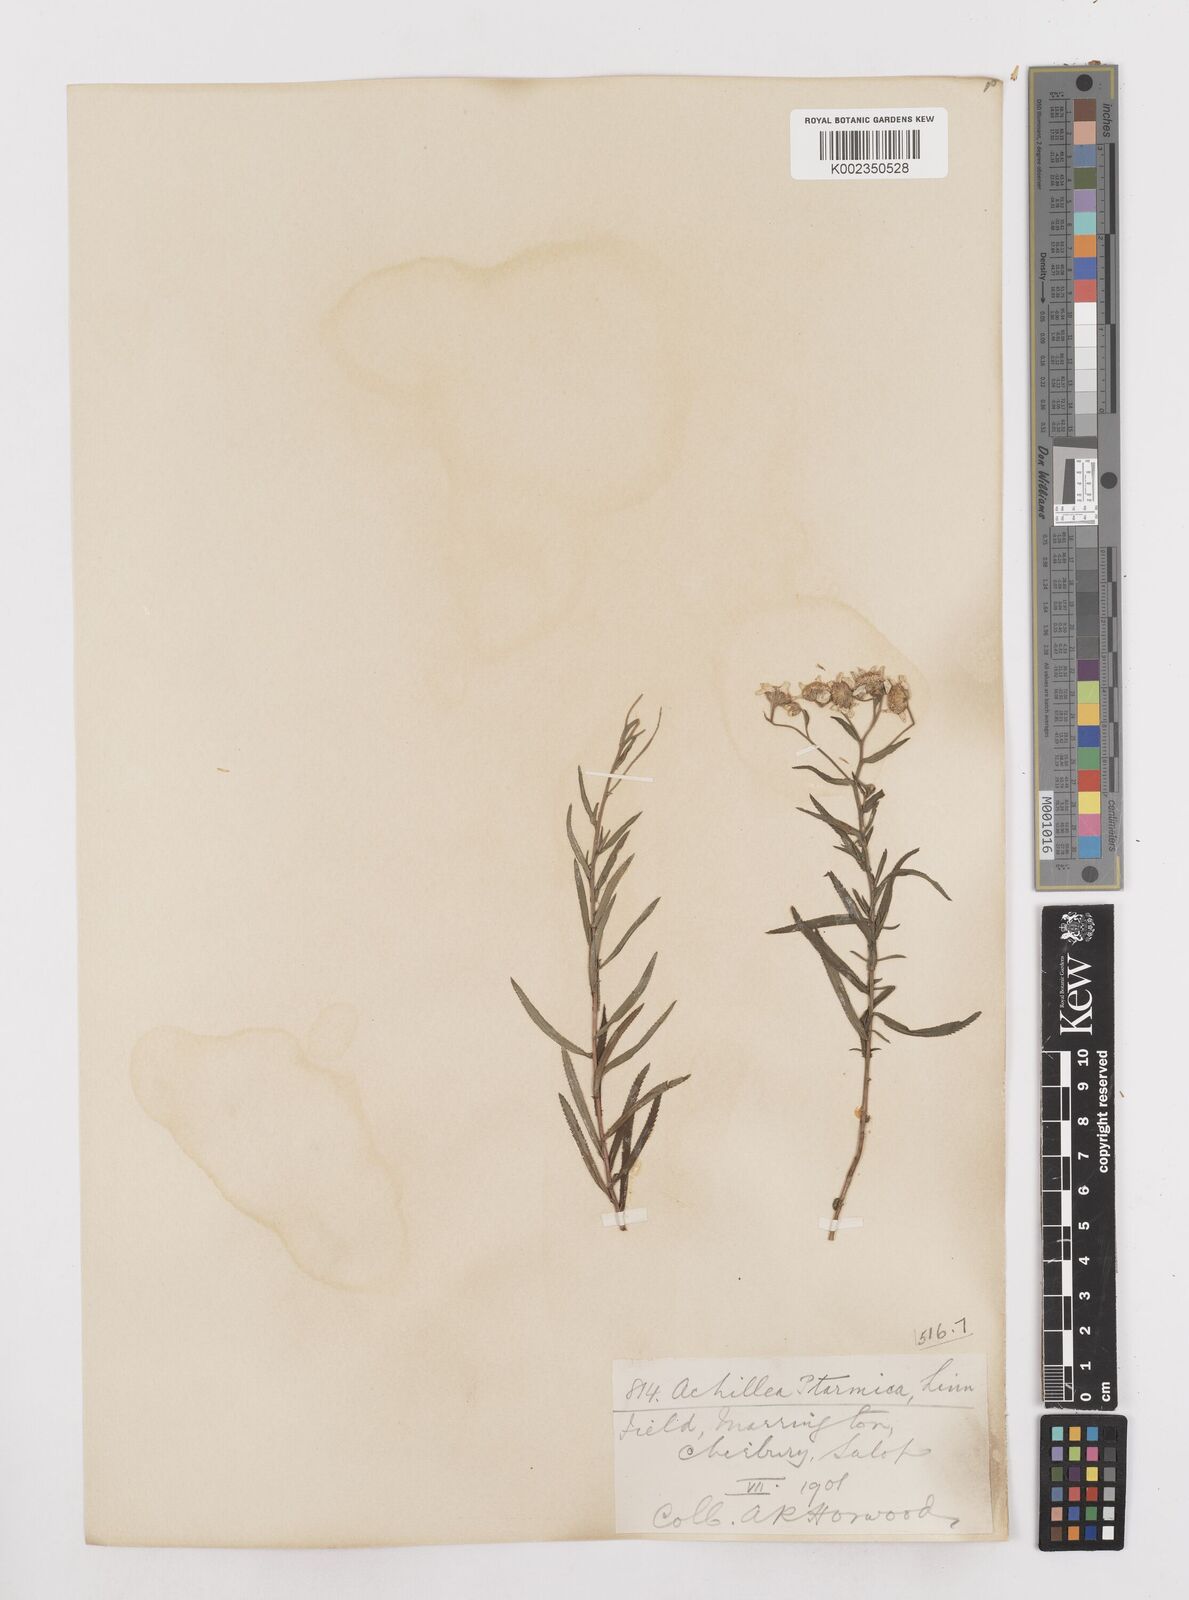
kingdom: Plantae
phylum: Tracheophyta
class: Magnoliopsida
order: Asterales
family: Asteraceae
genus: Achillea
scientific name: Achillea ptarmica
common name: Sneezeweed
